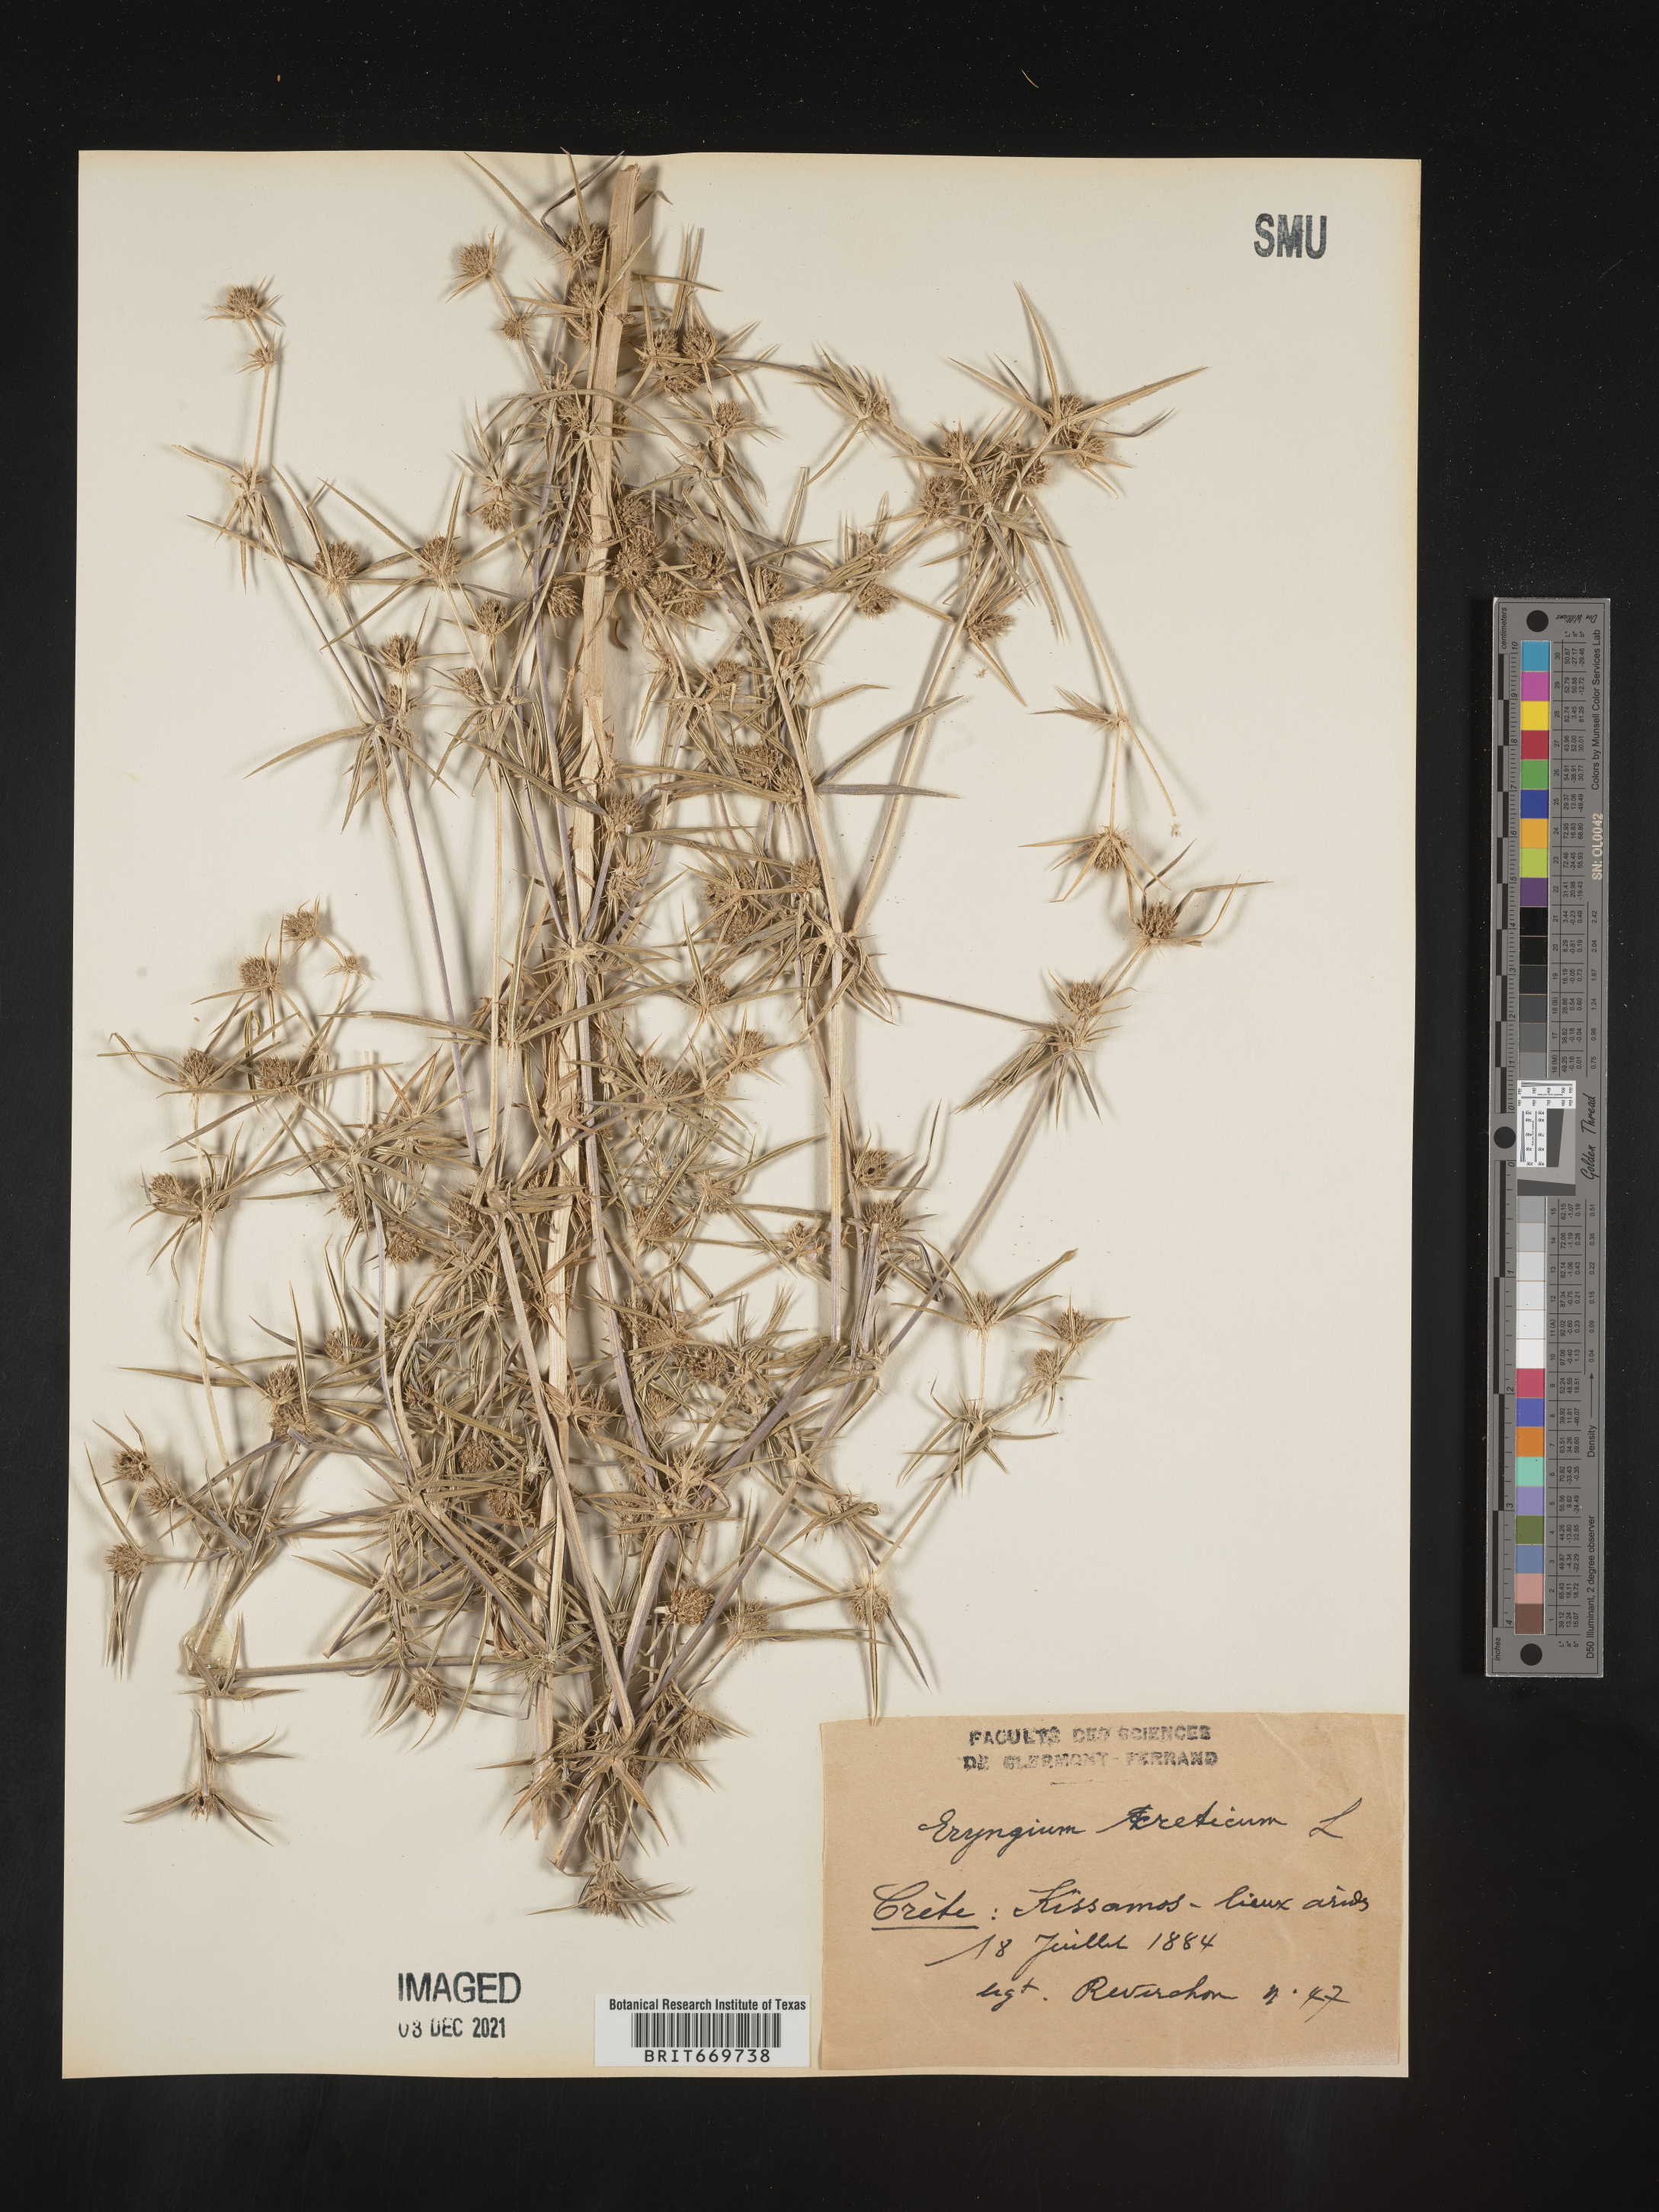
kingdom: Plantae
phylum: Tracheophyta
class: Magnoliopsida
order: Apiales
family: Apiaceae
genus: Eryngium
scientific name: Eryngium
